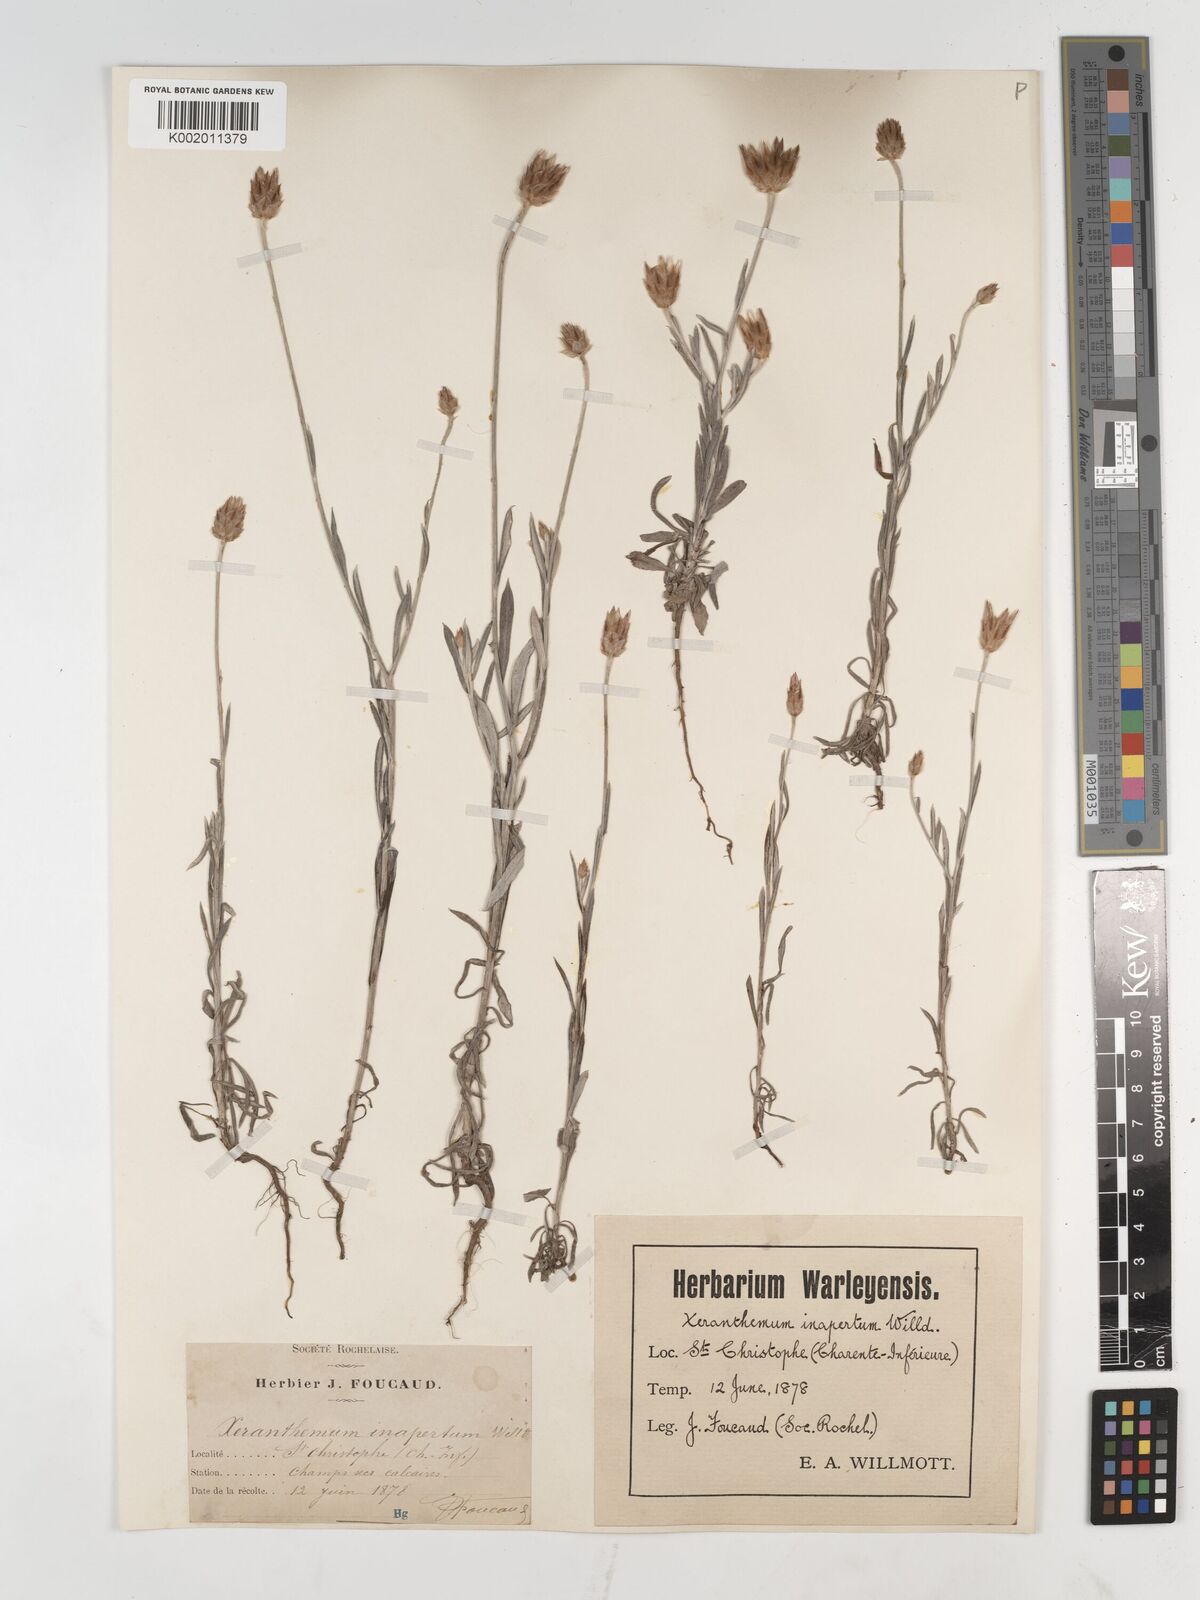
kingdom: Plantae
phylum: Tracheophyta
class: Magnoliopsida
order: Asterales
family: Asteraceae
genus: Xeranthemum
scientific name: Xeranthemum inapertum
